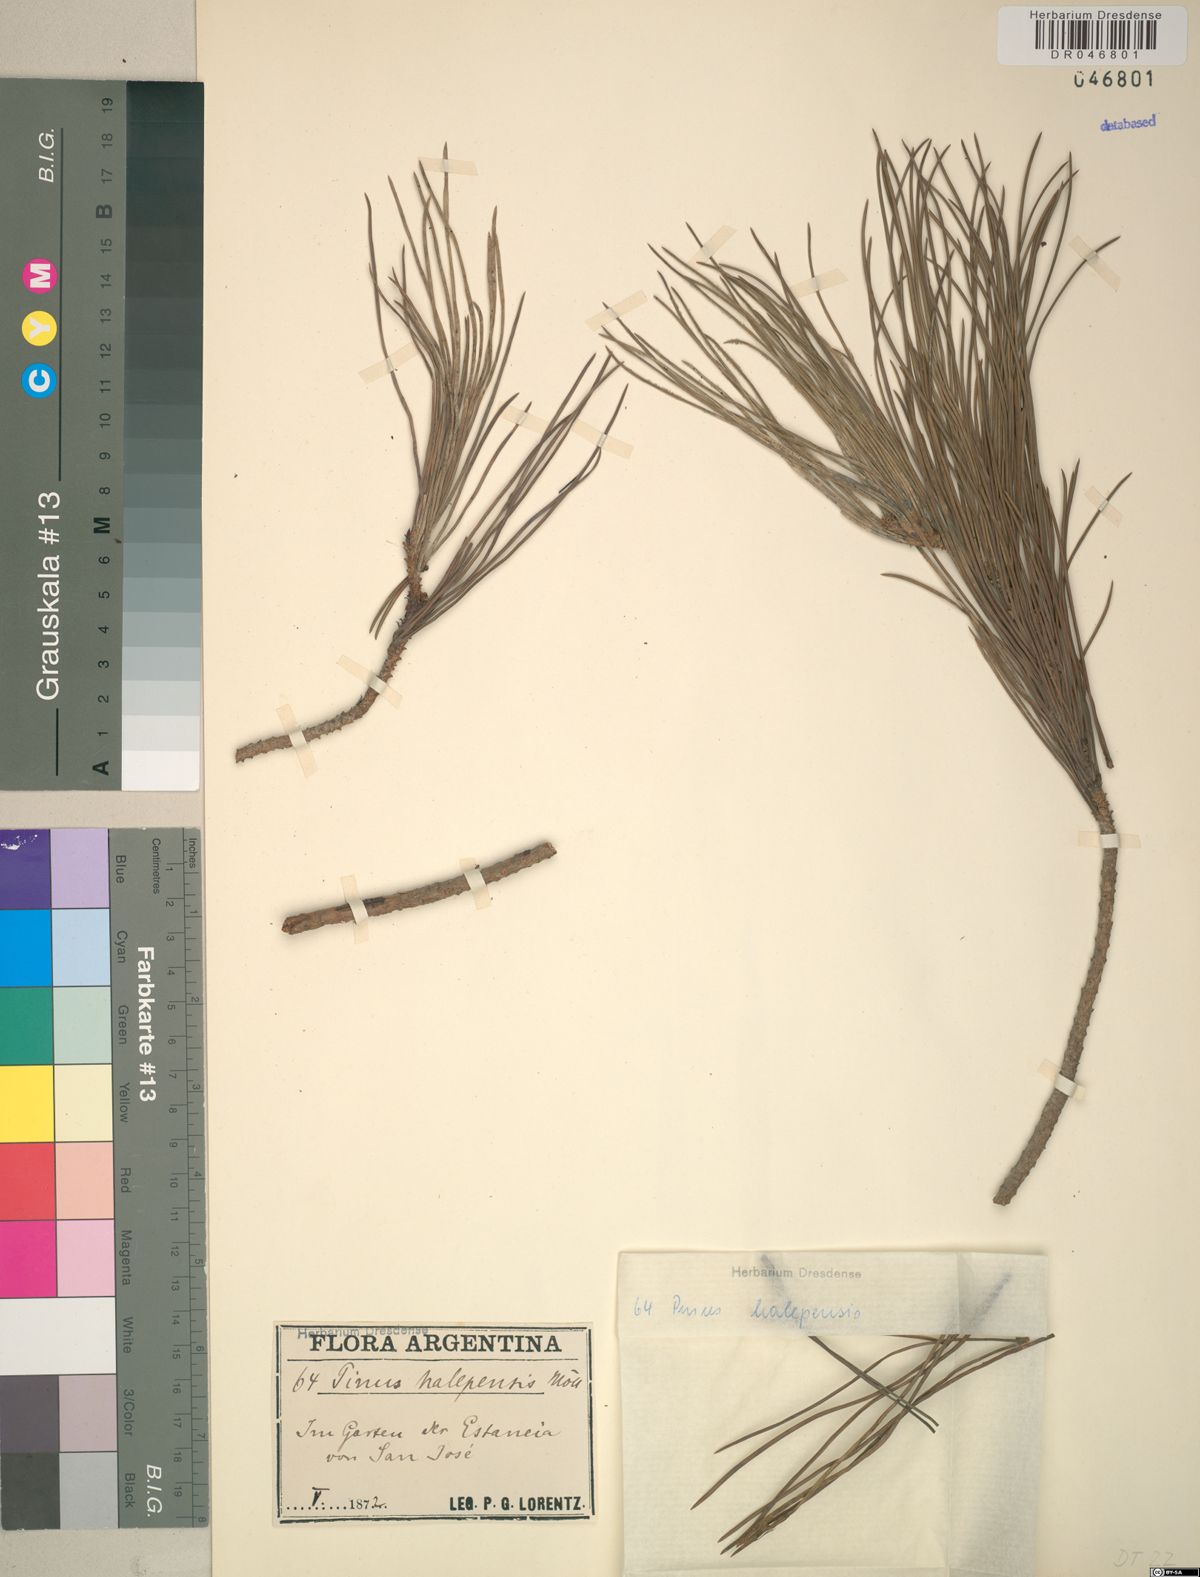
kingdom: Plantae
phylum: Tracheophyta
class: Pinopsida
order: Pinales
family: Pinaceae
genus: Pinus
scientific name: Pinus halepensis
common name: Aleppo pine
